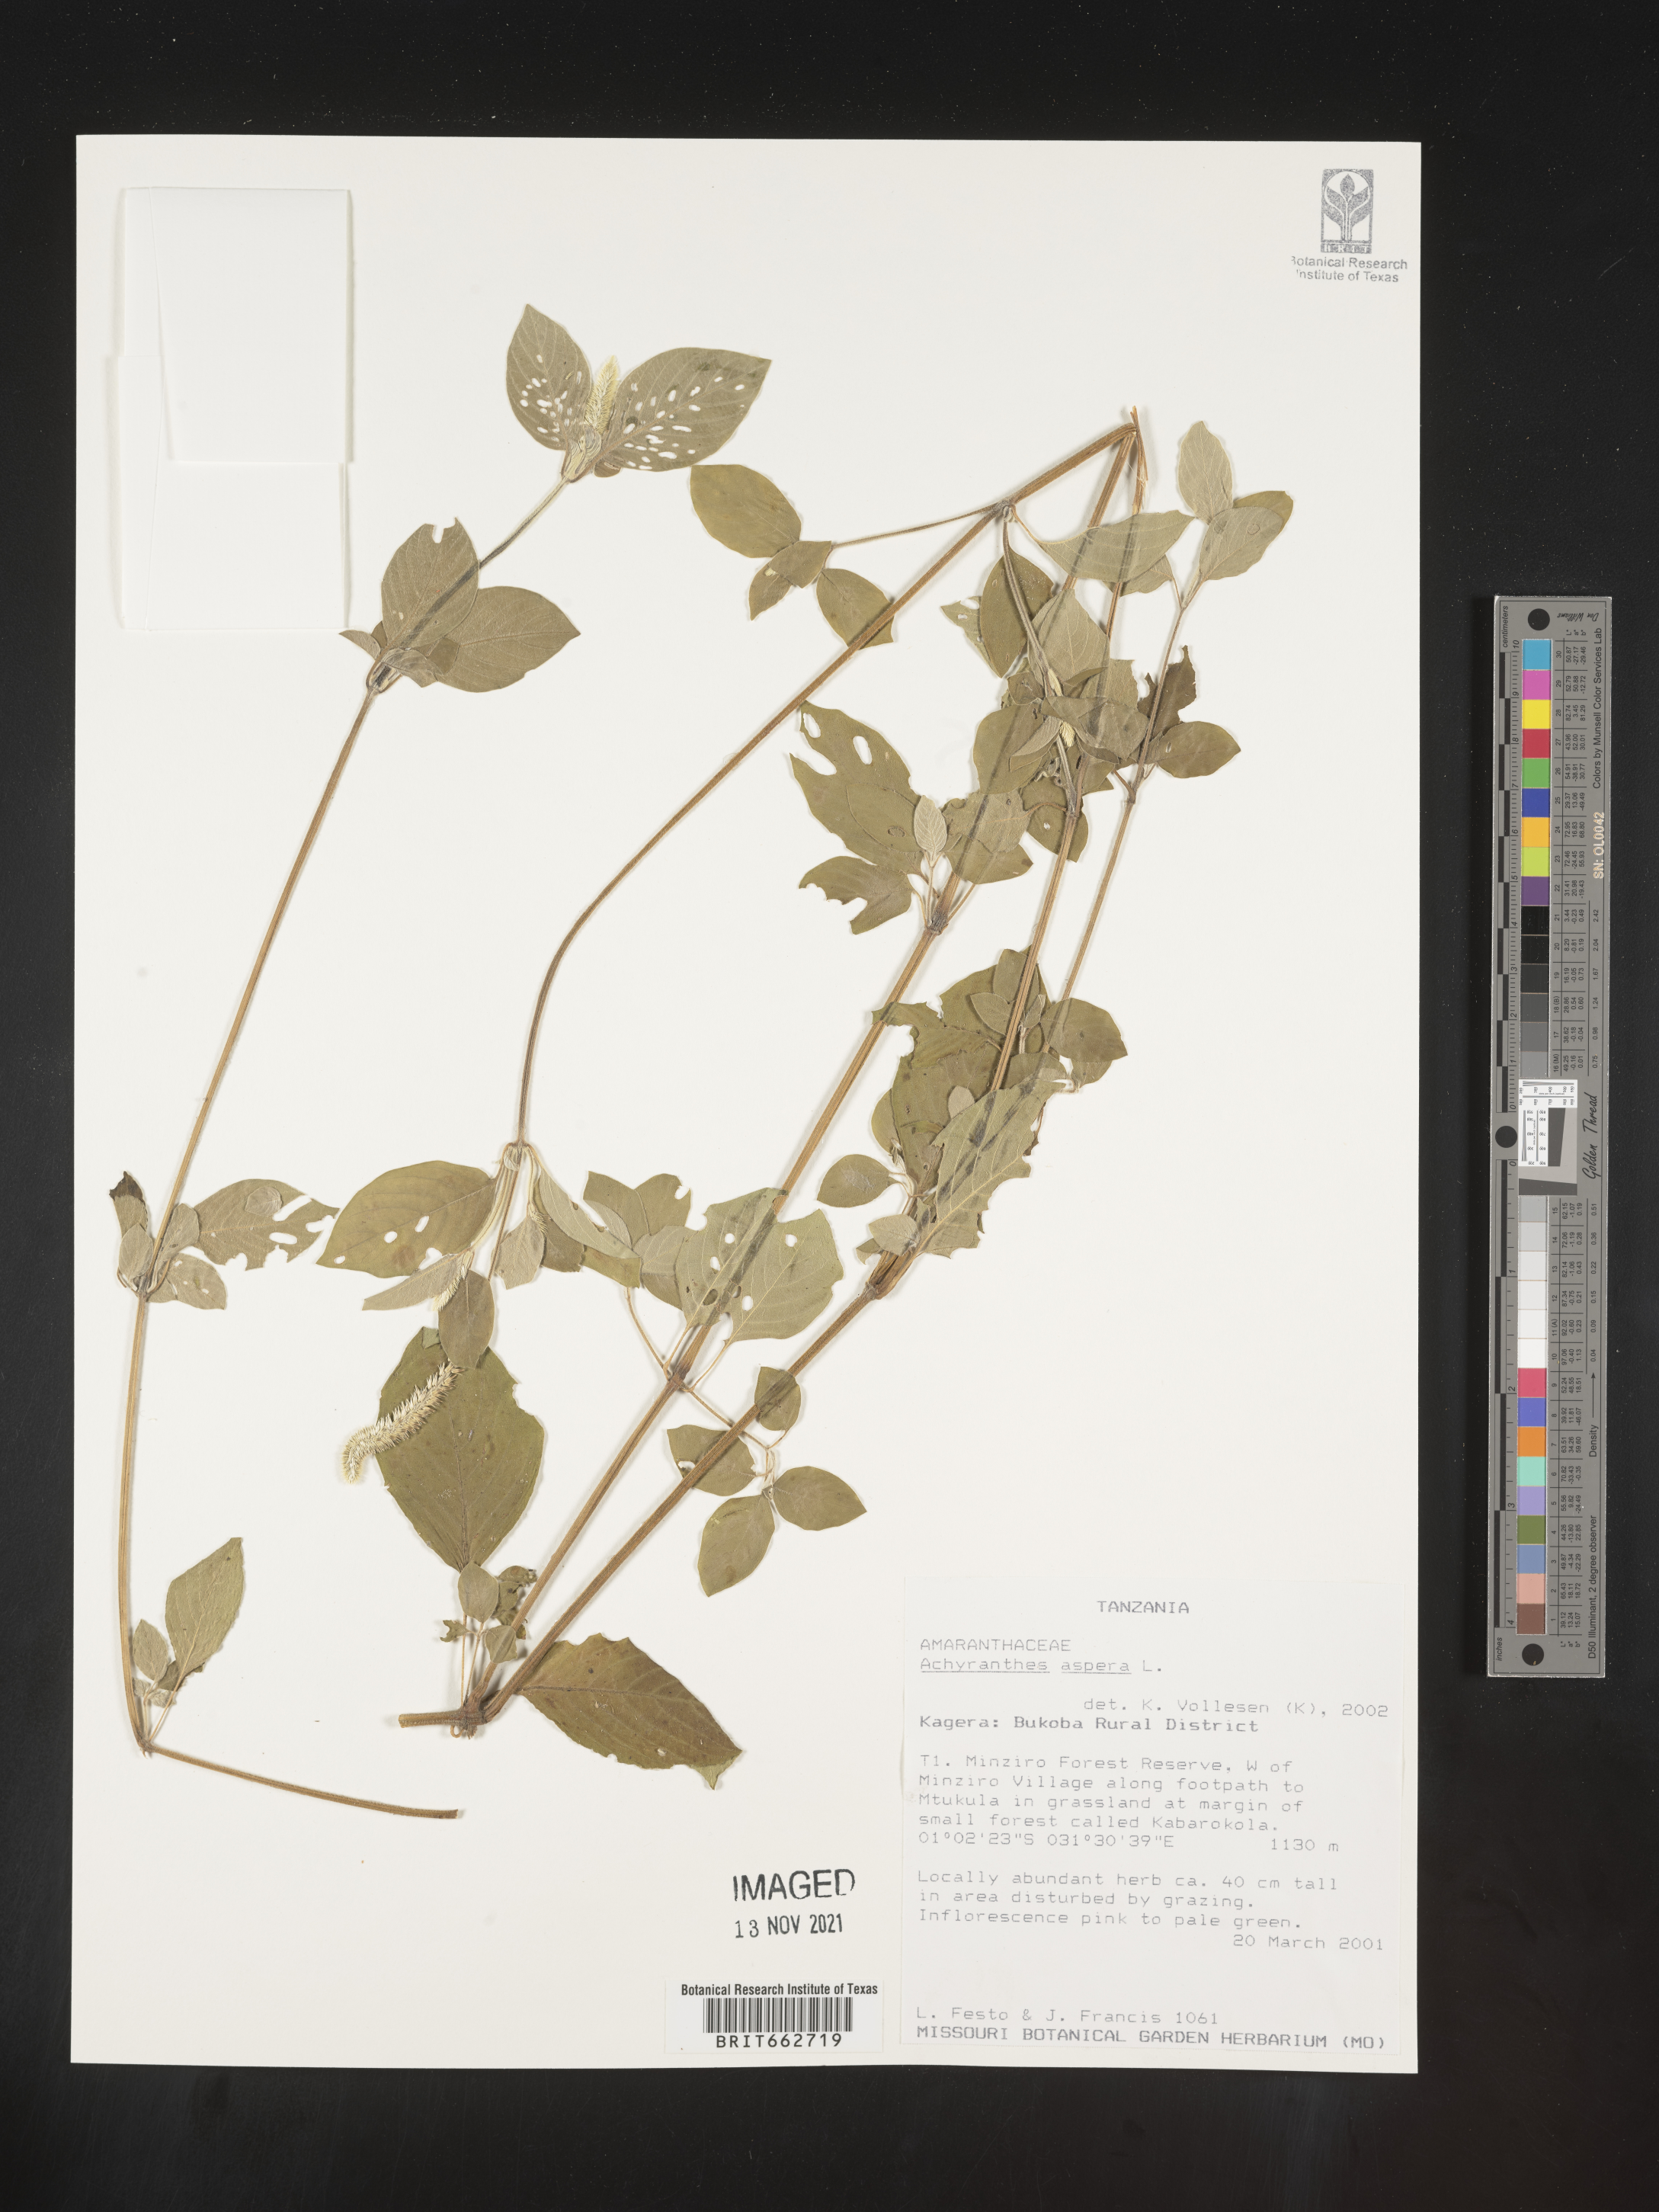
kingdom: Plantae
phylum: Tracheophyta
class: Magnoliopsida
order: Caryophyllales
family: Amaranthaceae
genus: Achyranthes
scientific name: Achyranthes
